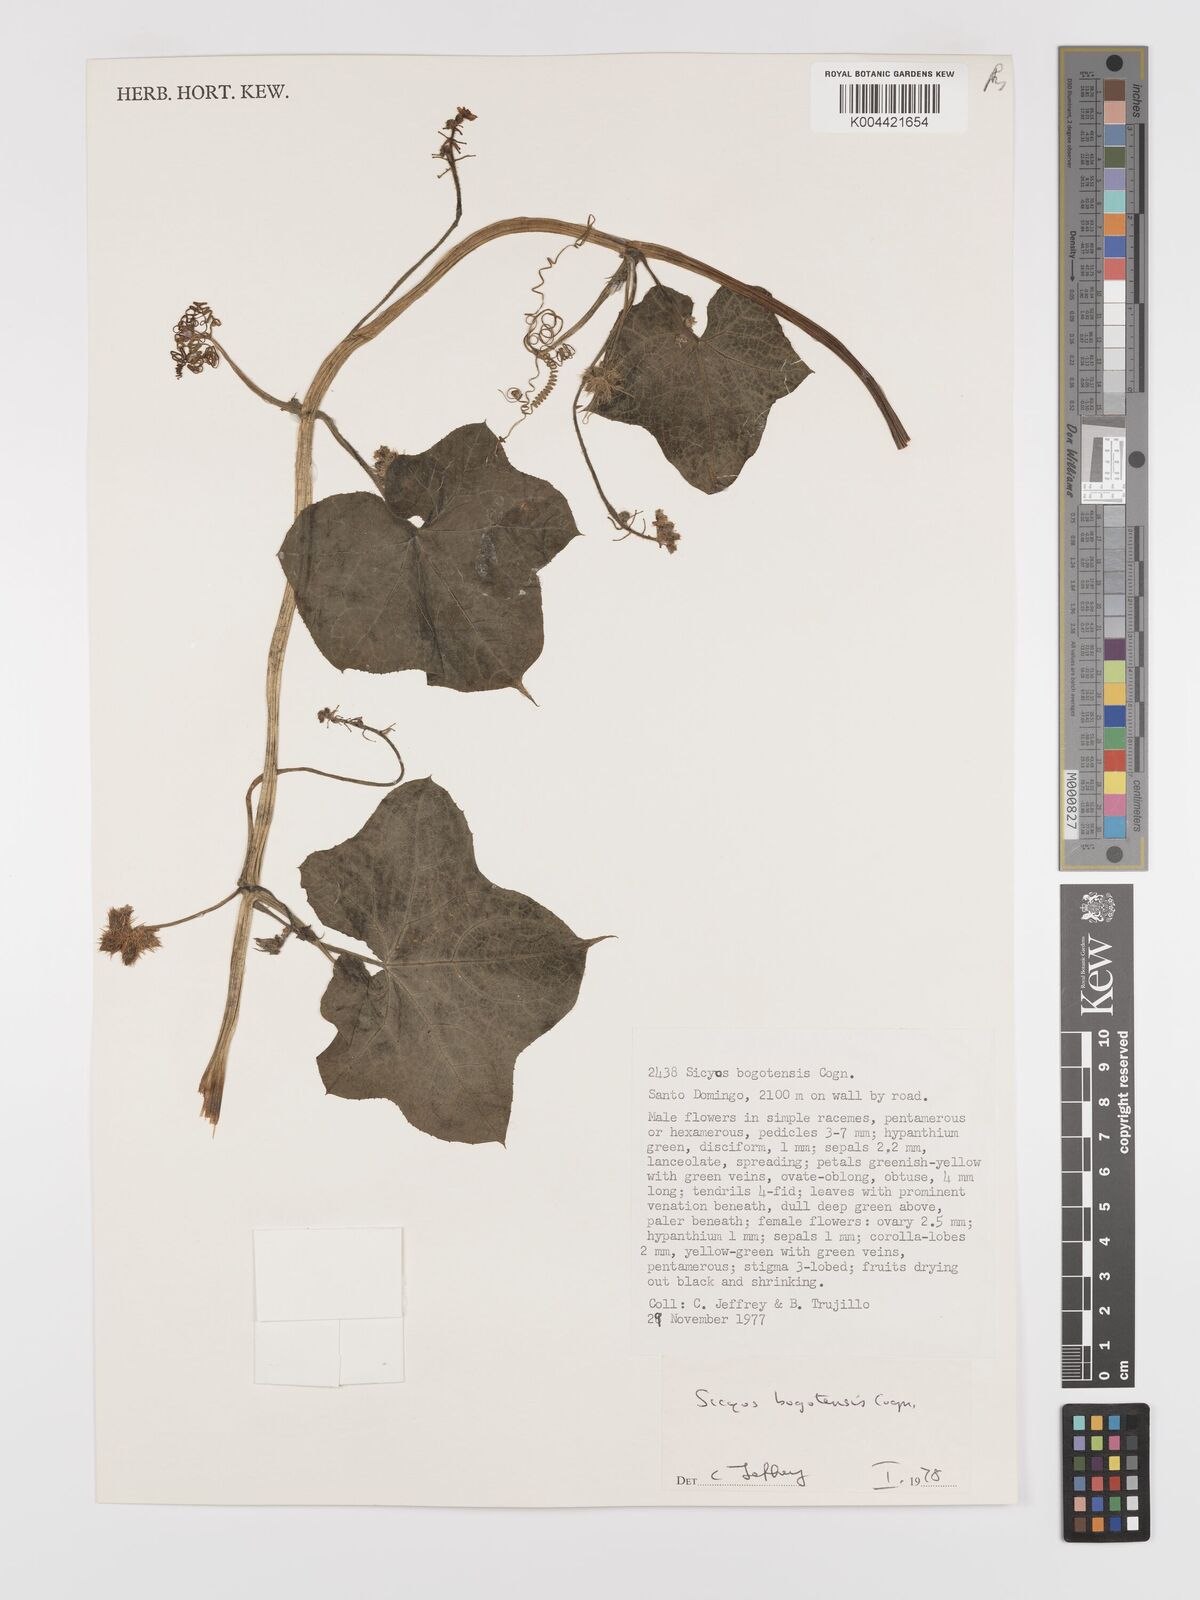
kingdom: Plantae
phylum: Tracheophyta
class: Magnoliopsida
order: Cucurbitales
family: Cucurbitaceae
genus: Sicyos
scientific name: Sicyos bogotensis
